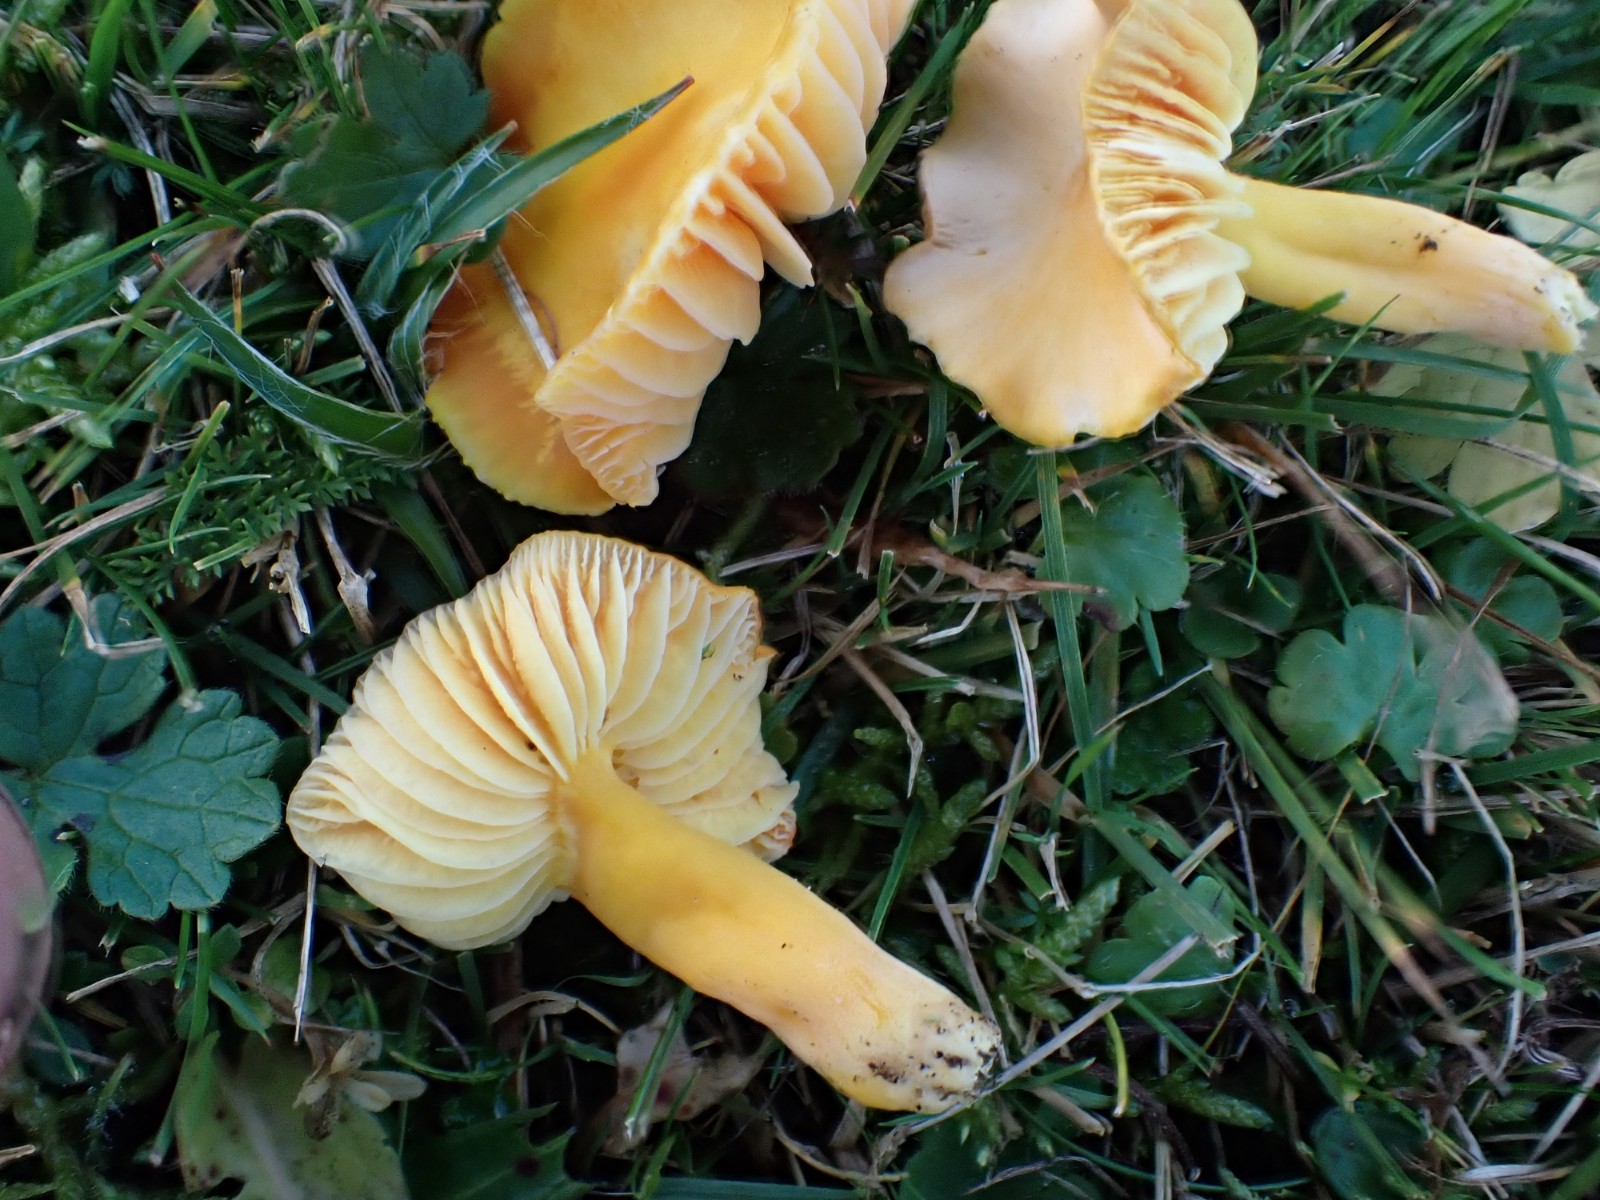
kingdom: Fungi
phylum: Basidiomycota
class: Agaricomycetes
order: Agaricales
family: Hygrophoraceae
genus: Hygrocybe
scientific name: Hygrocybe chlorophana
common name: gul vokshat
